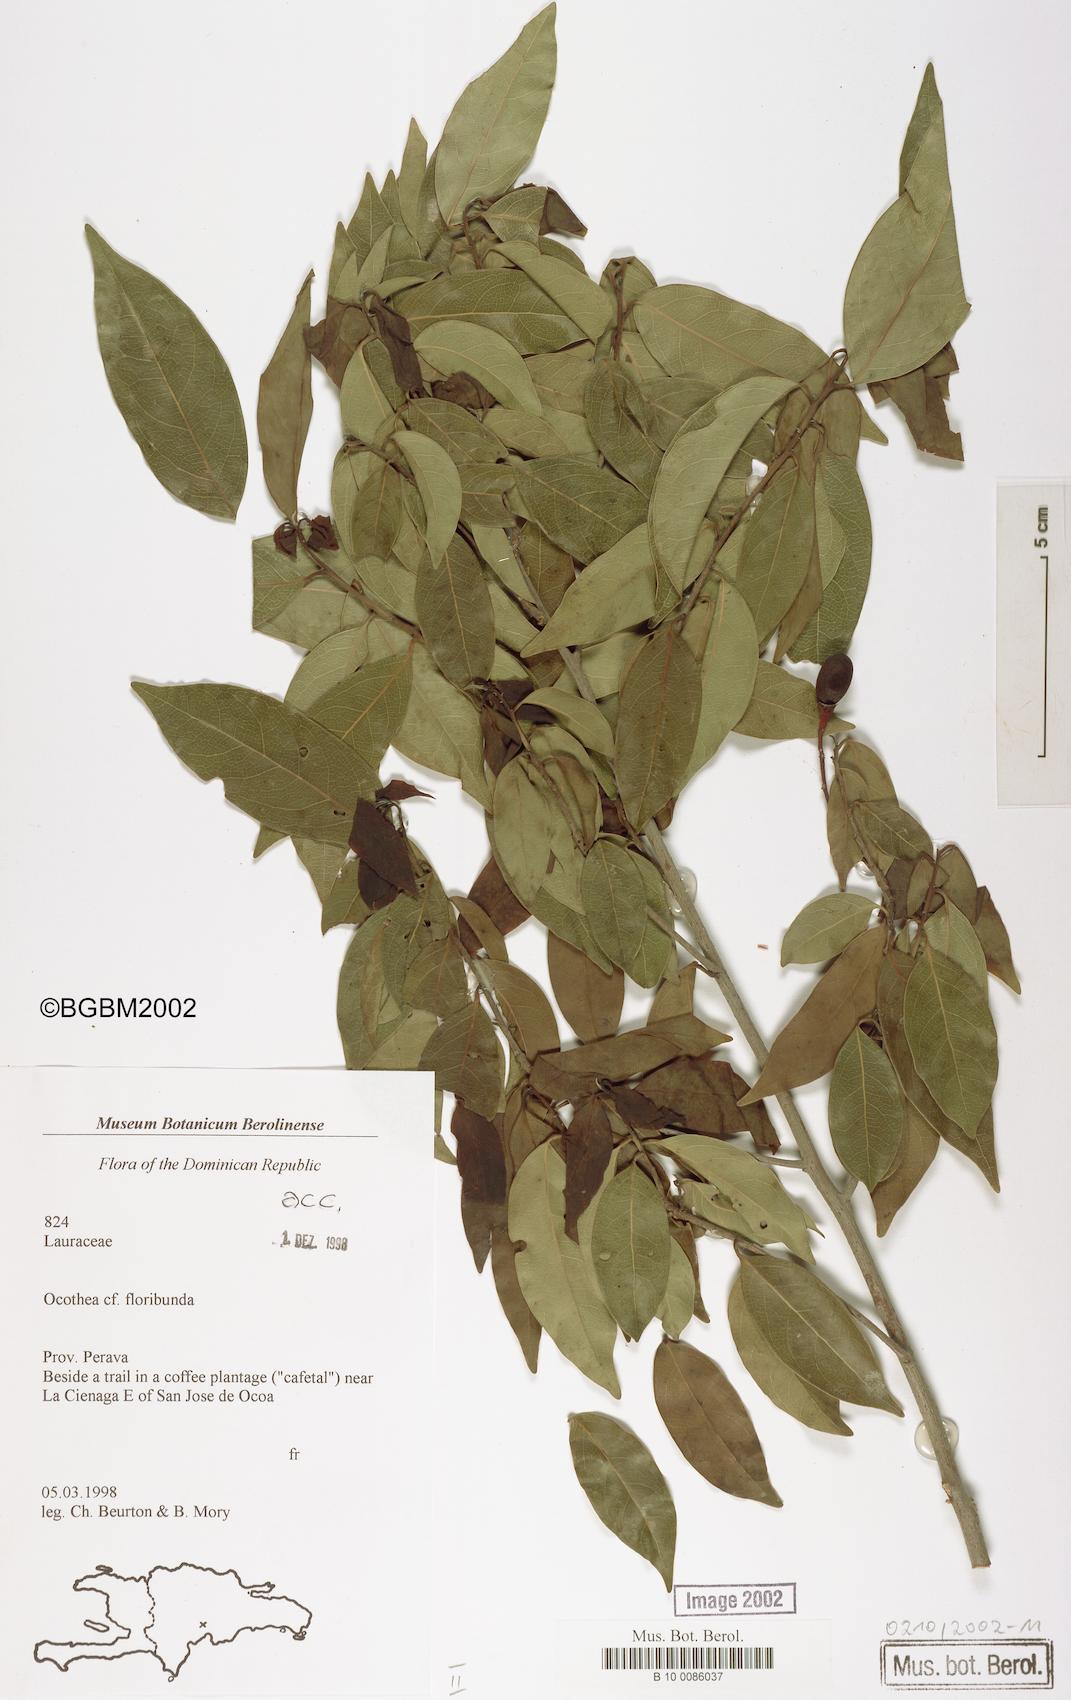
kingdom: Plantae
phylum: Tracheophyta
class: Magnoliopsida
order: Laurales
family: Lauraceae
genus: Ocotea
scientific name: Ocotea floribunda
